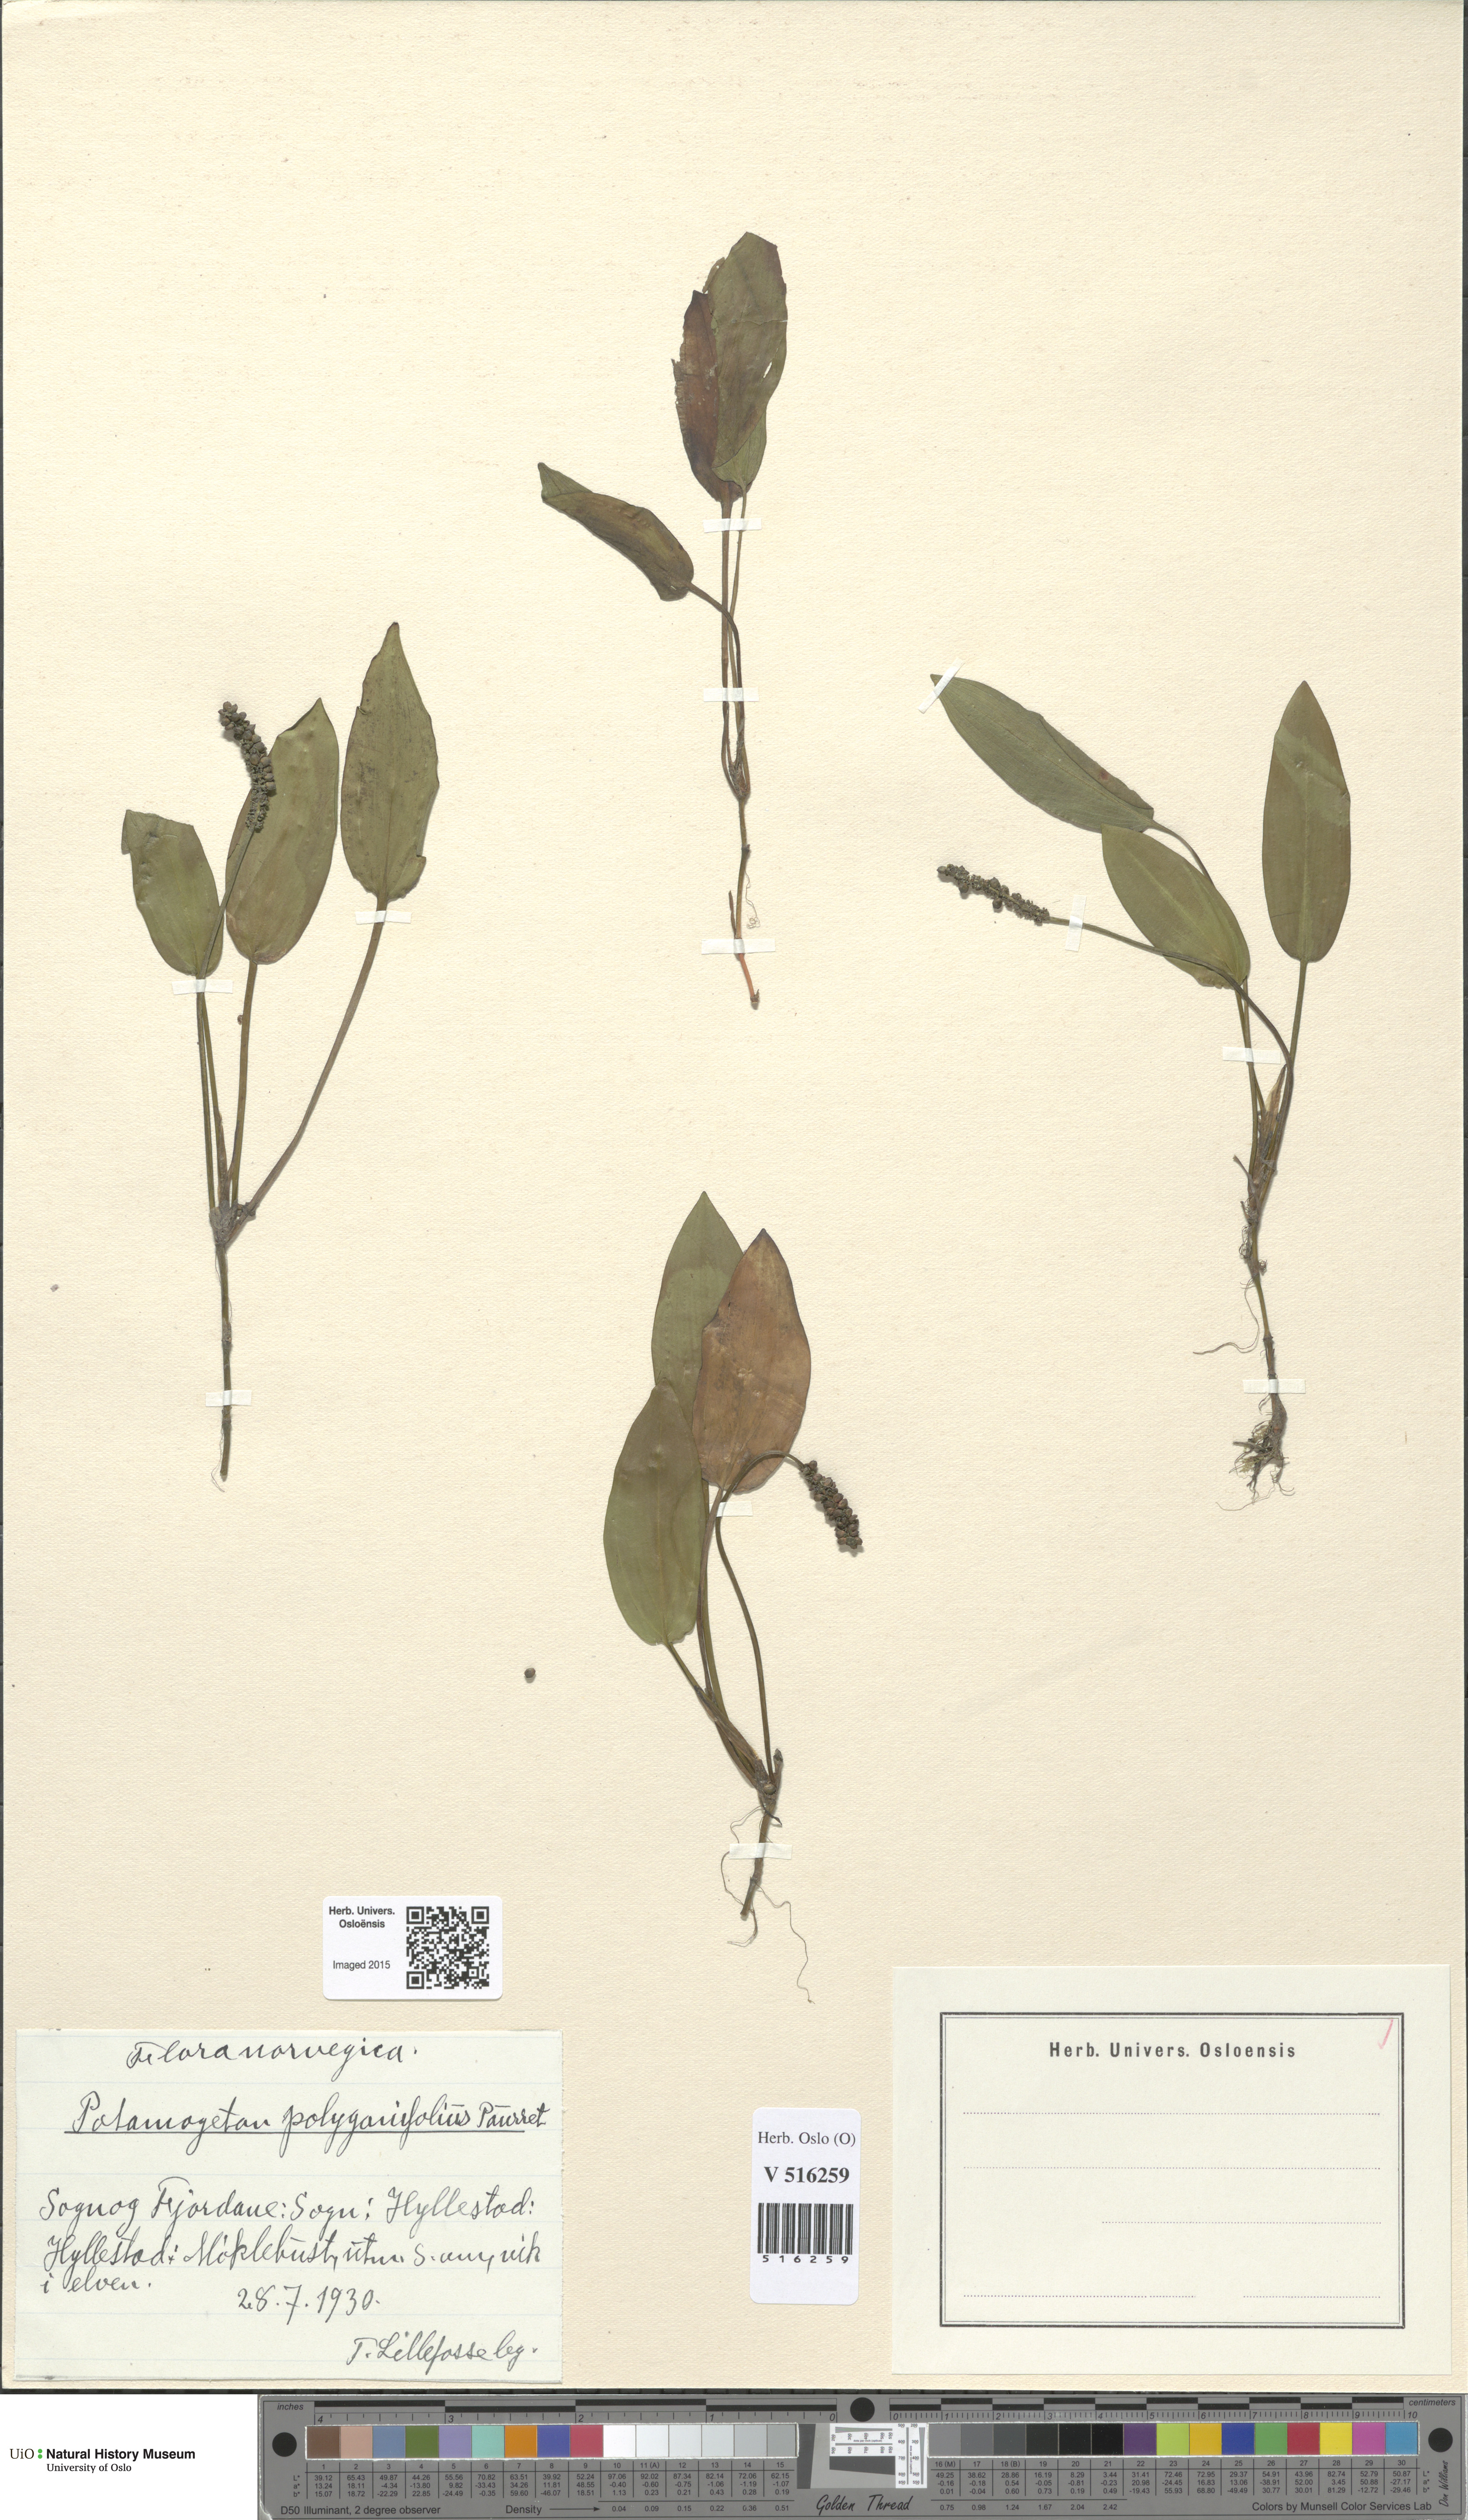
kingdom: Plantae
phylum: Tracheophyta
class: Liliopsida
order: Alismatales
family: Potamogetonaceae
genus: Potamogeton
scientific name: Potamogeton polygonifolius
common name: Bog pondweed
